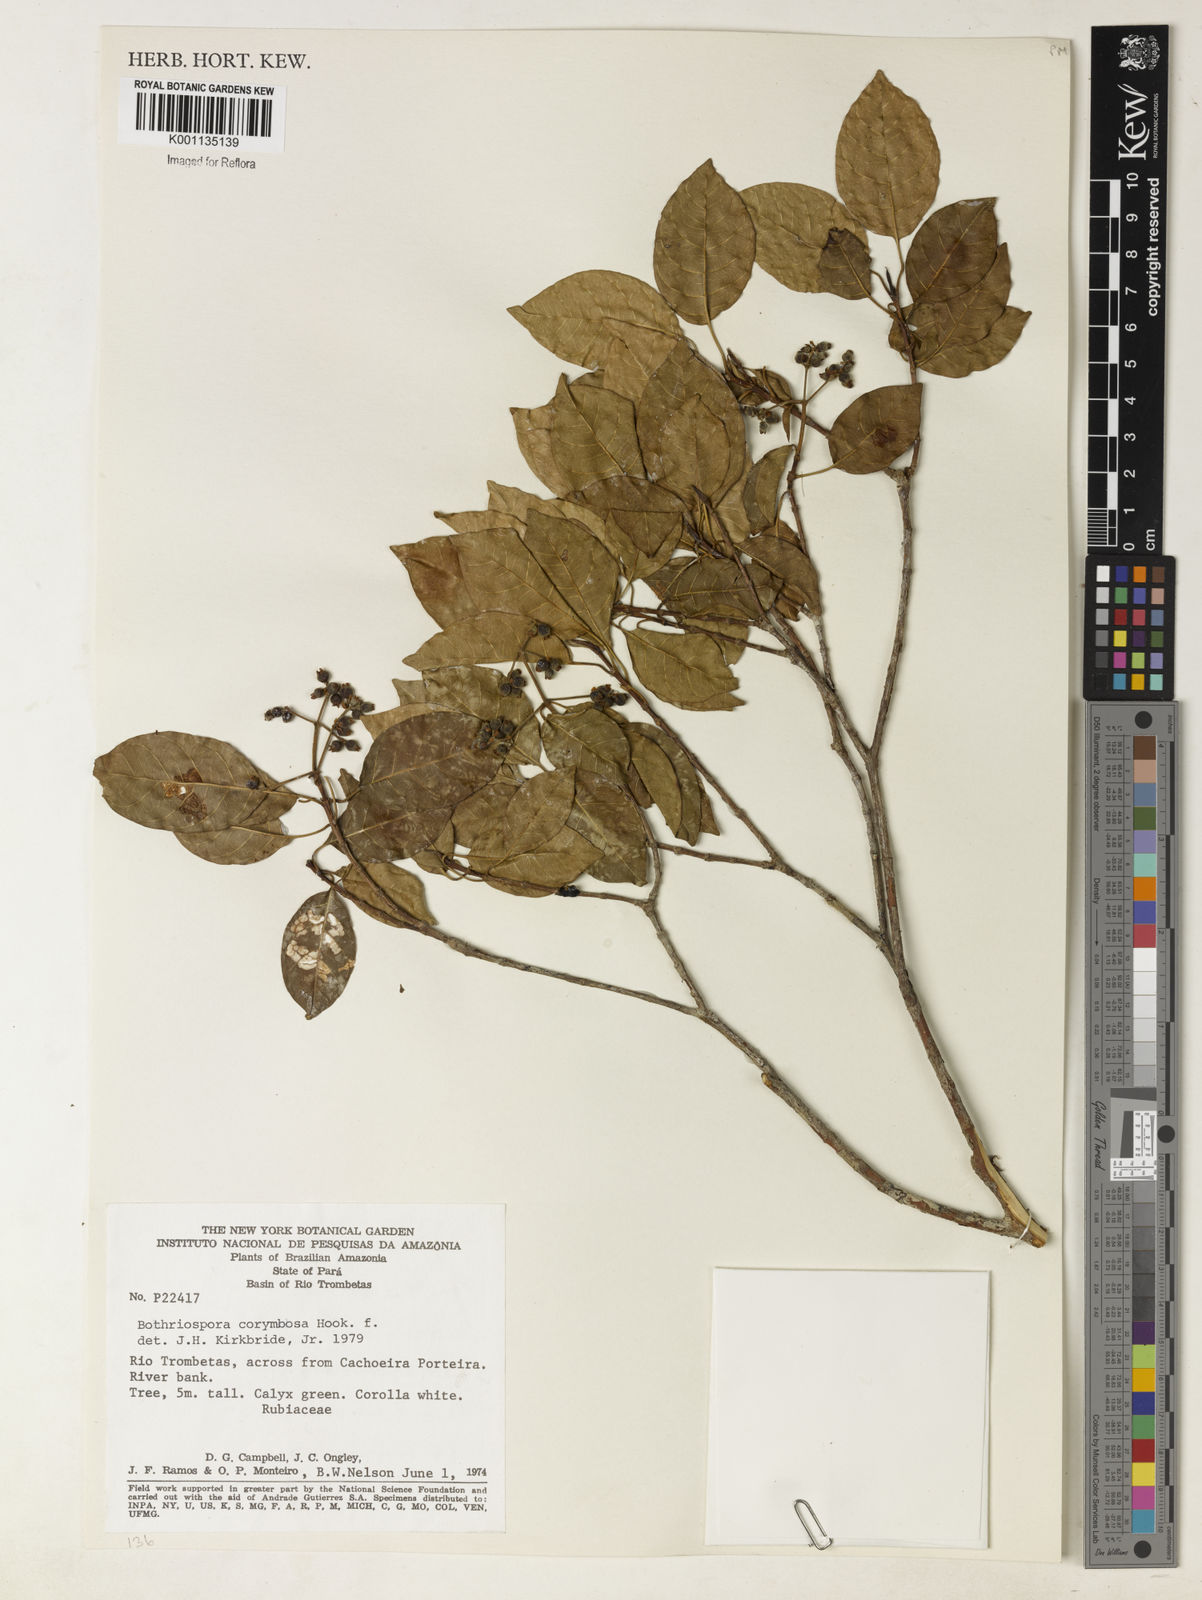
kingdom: Plantae
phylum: Tracheophyta
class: Magnoliopsida
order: Gentianales
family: Rubiaceae
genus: Bothriospora
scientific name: Bothriospora corymbosa
